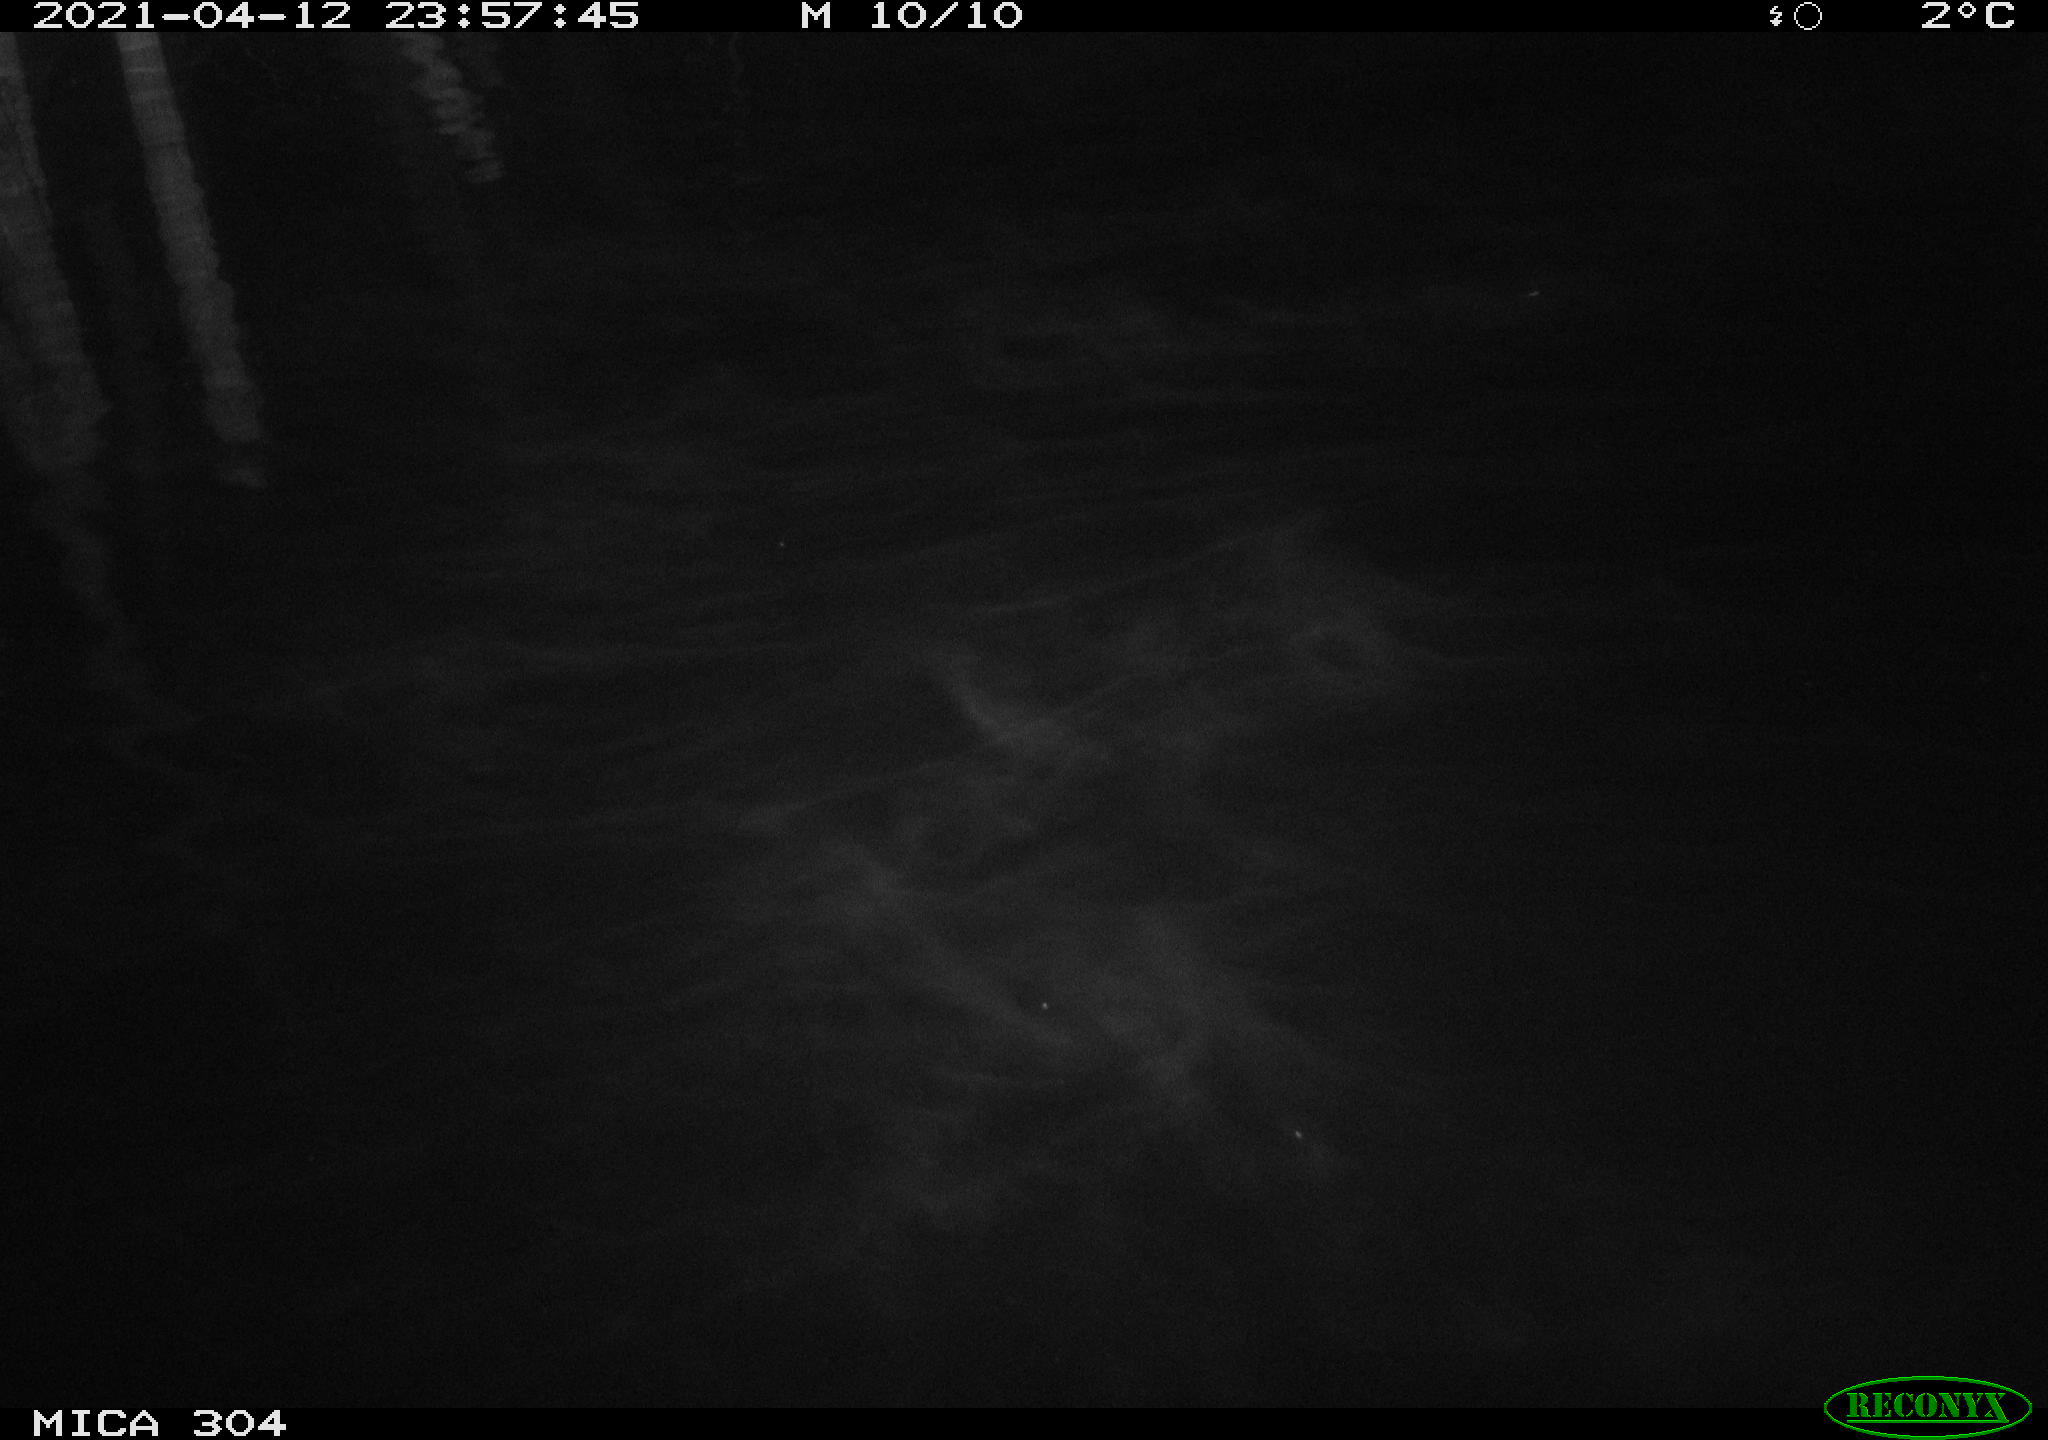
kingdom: Animalia
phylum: Chordata
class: Aves
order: Anseriformes
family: Anatidae
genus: Anas
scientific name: Anas
